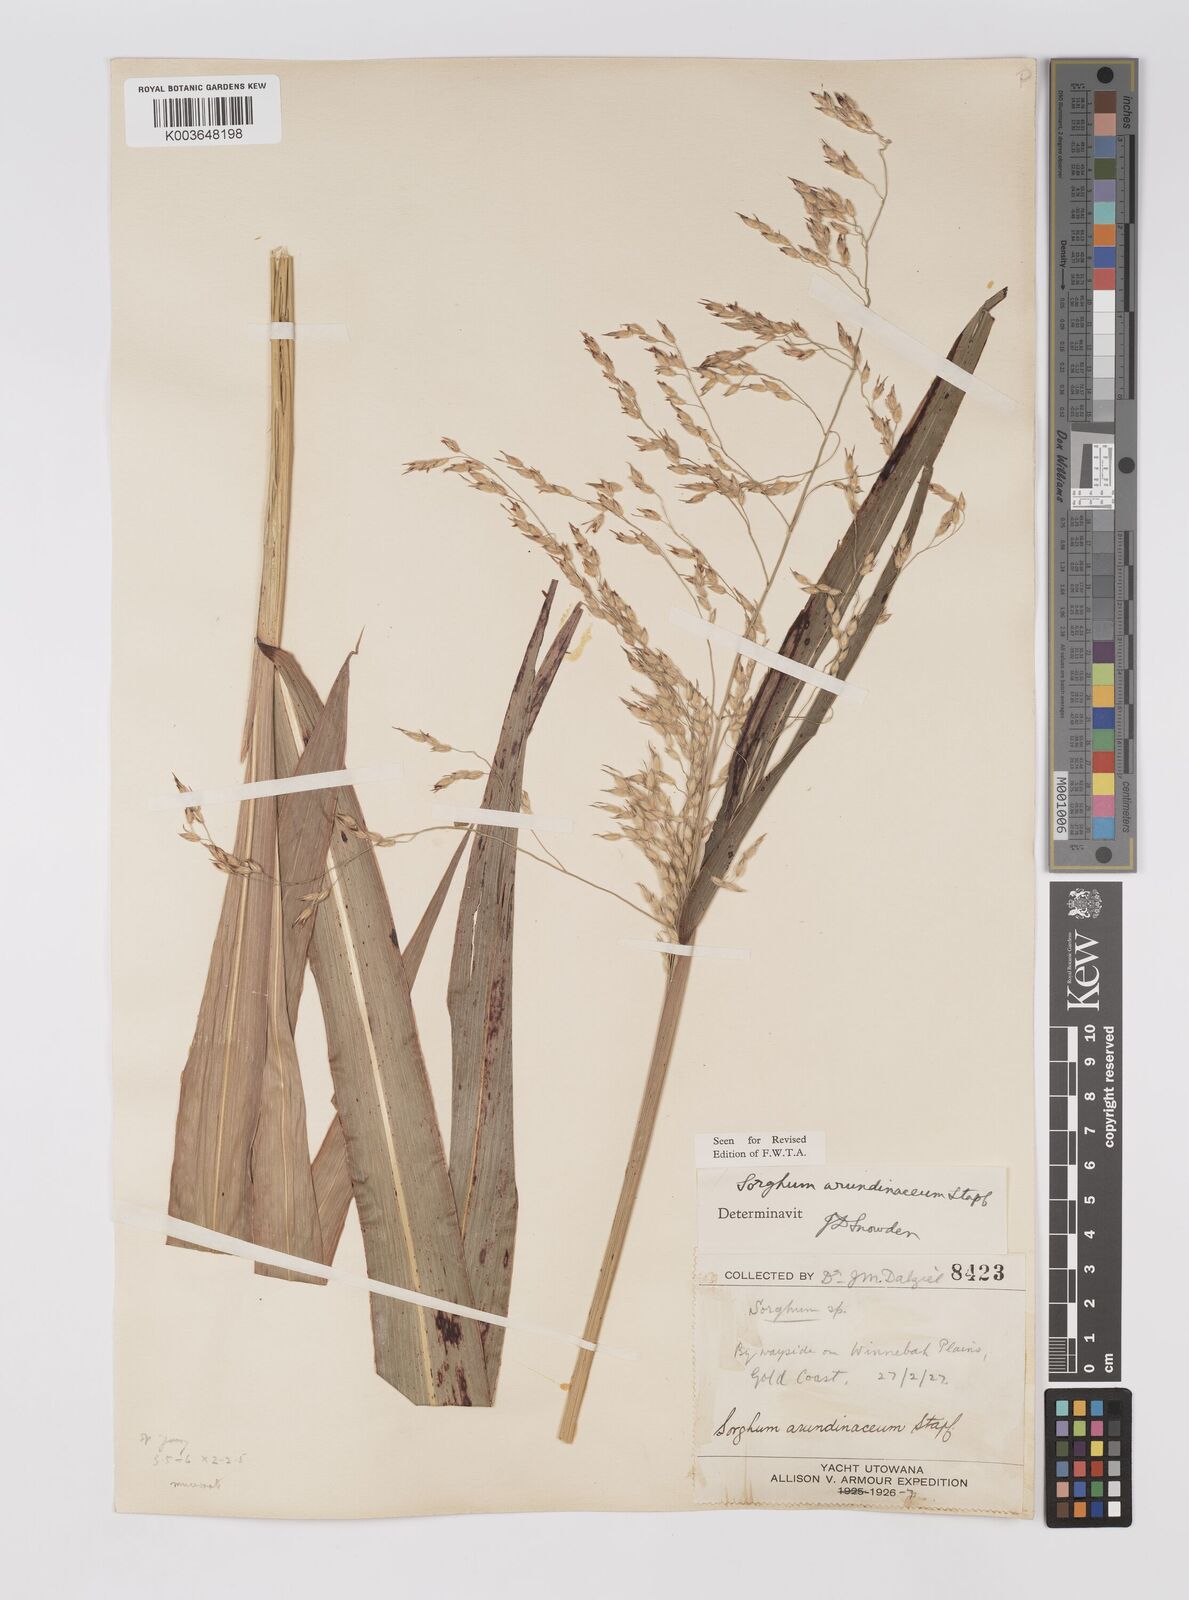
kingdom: Plantae
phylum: Tracheophyta
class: Liliopsida
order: Poales
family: Poaceae
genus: Sorghum
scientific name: Sorghum arundinaceum
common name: Sorghum
